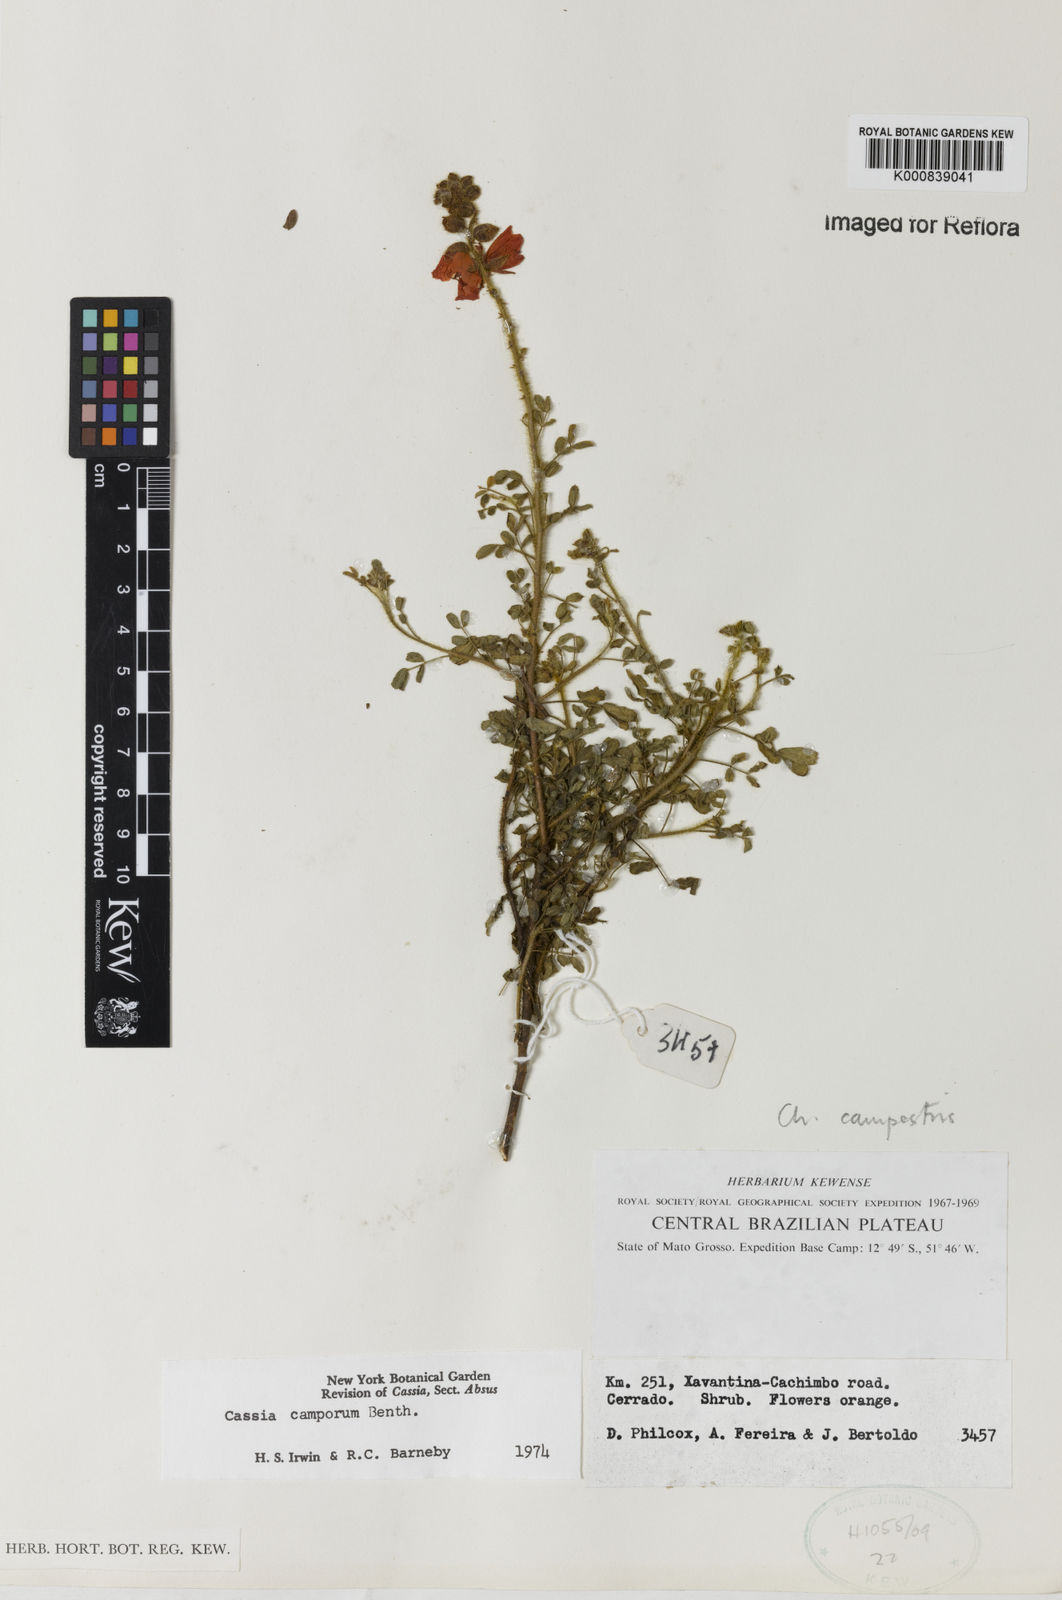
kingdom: Plantae
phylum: Tracheophyta
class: Magnoliopsida
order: Fabales
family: Fabaceae
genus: Chamaecrista
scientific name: Chamaecrista campestris
